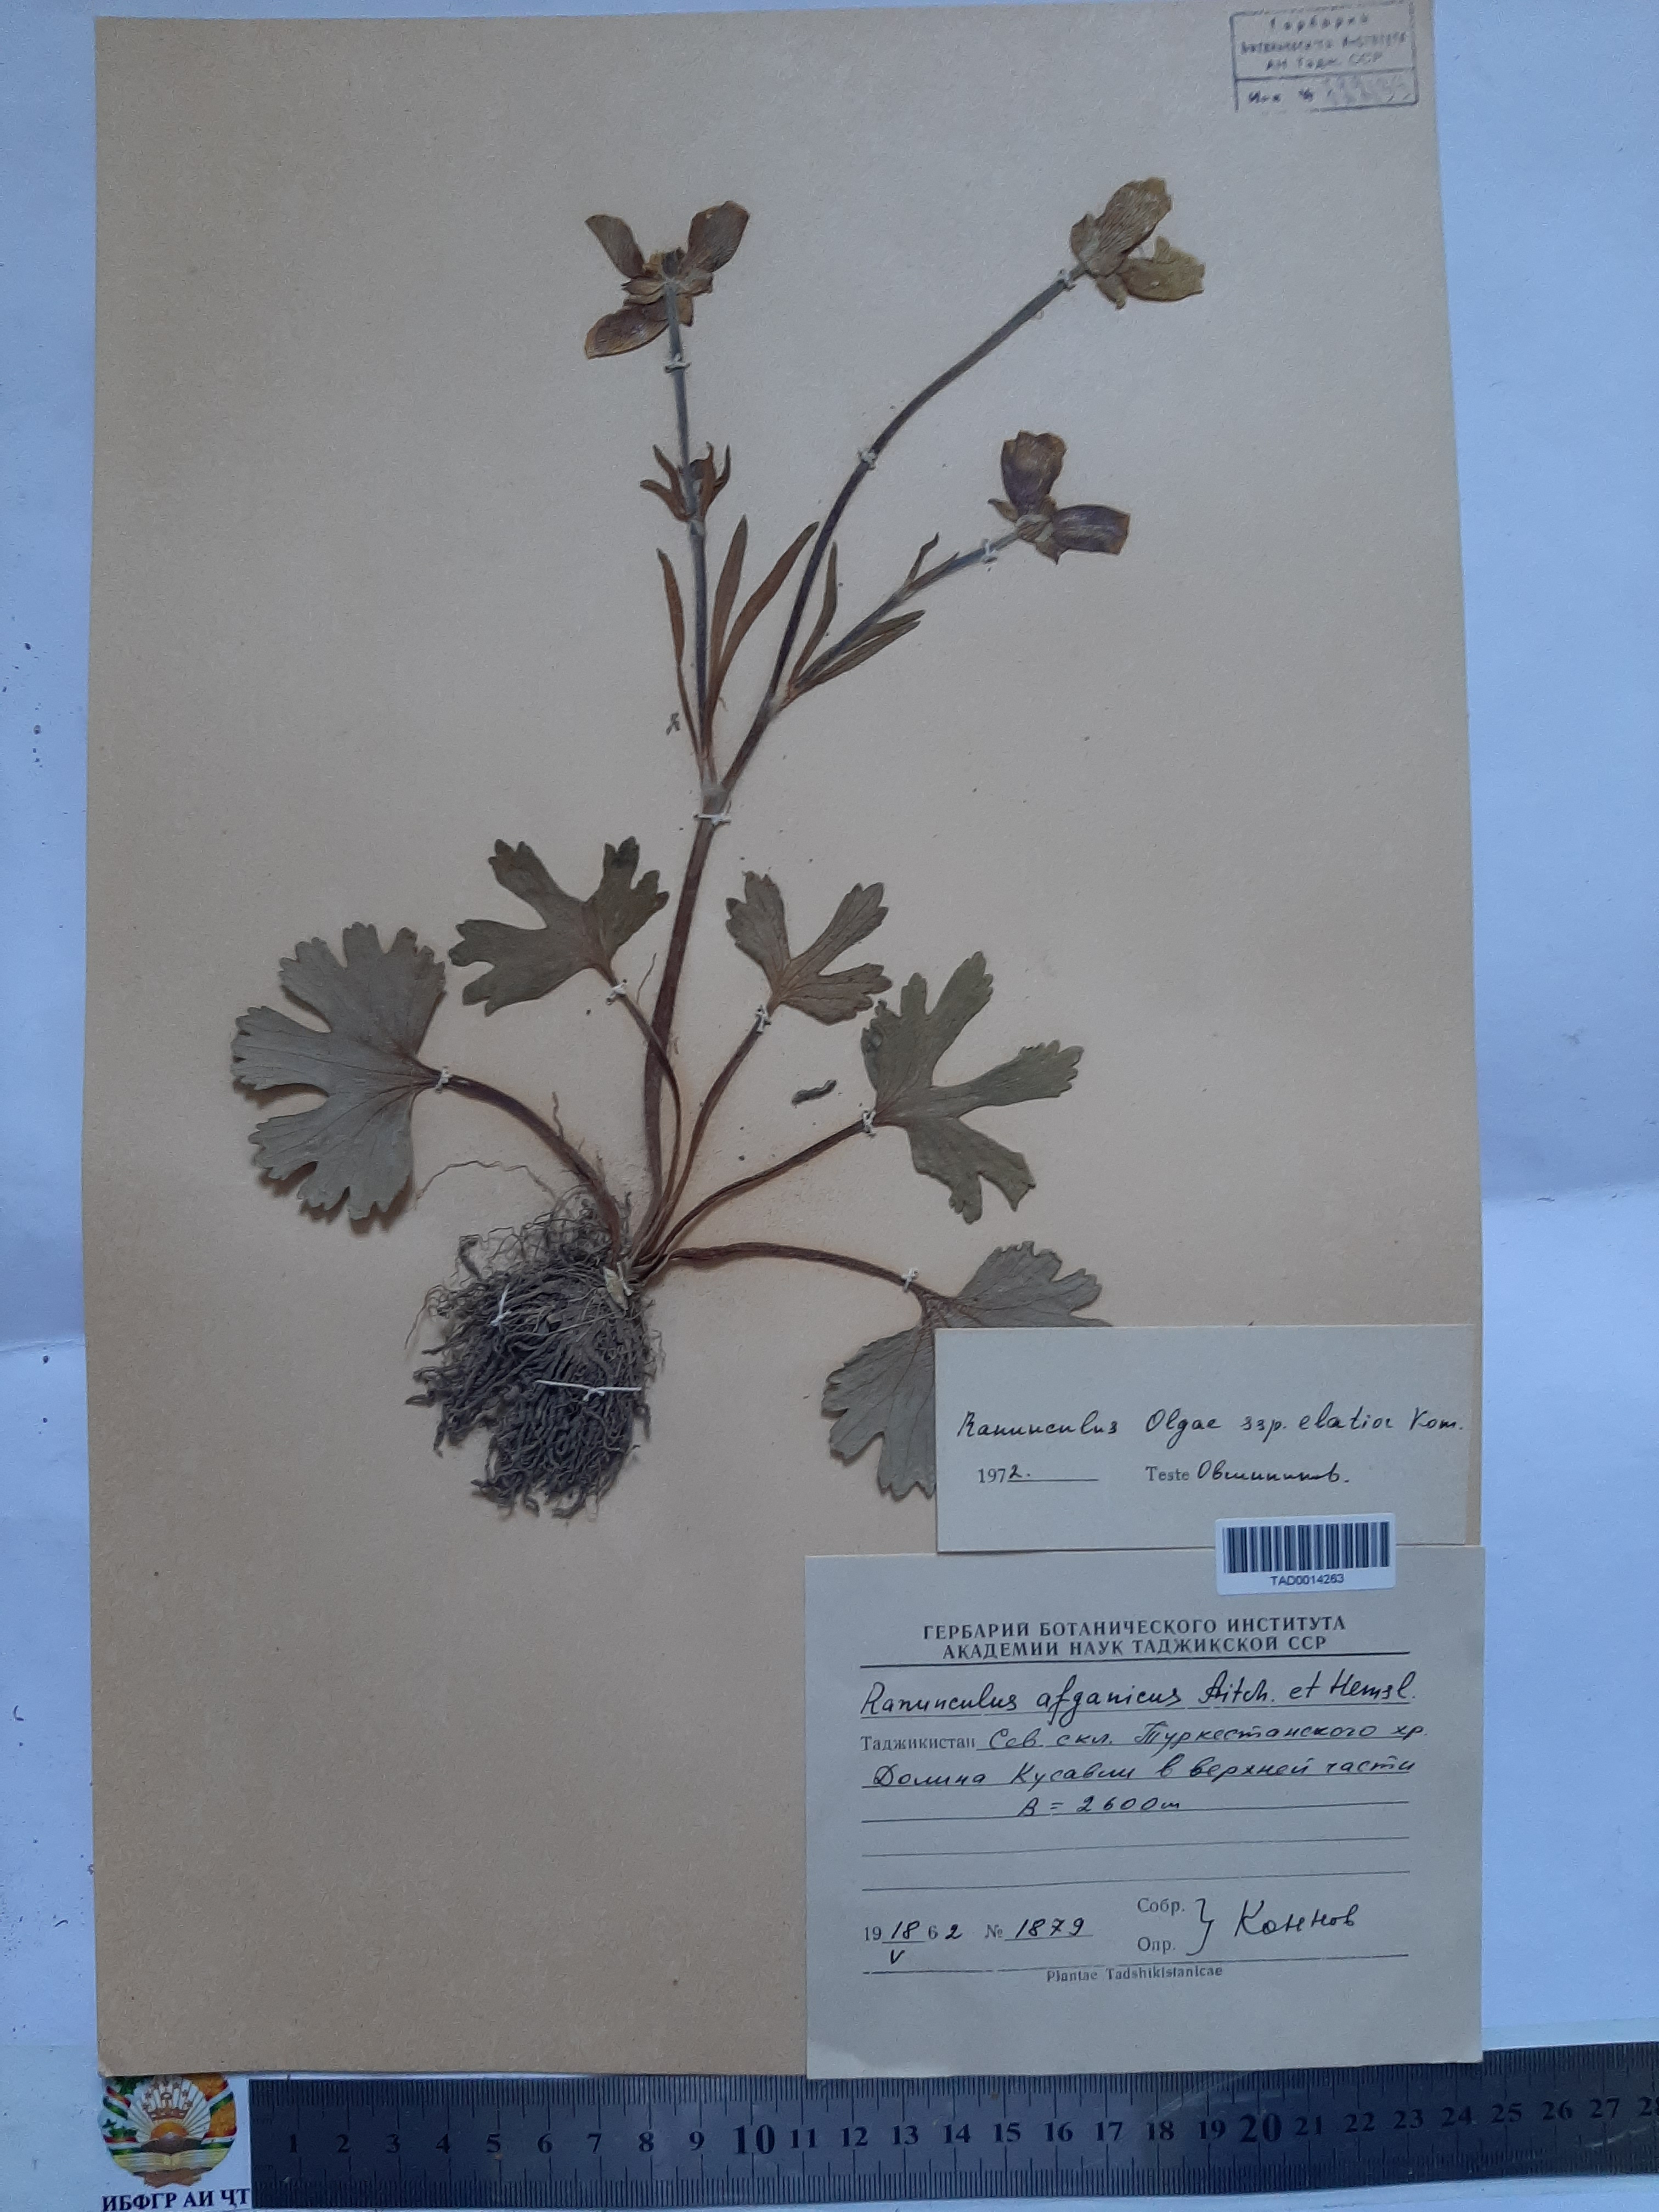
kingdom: Plantae
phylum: Tracheophyta
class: Magnoliopsida
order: Ranunculales
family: Ranunculaceae
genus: Ranunculus
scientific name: Ranunculus afghanicus
